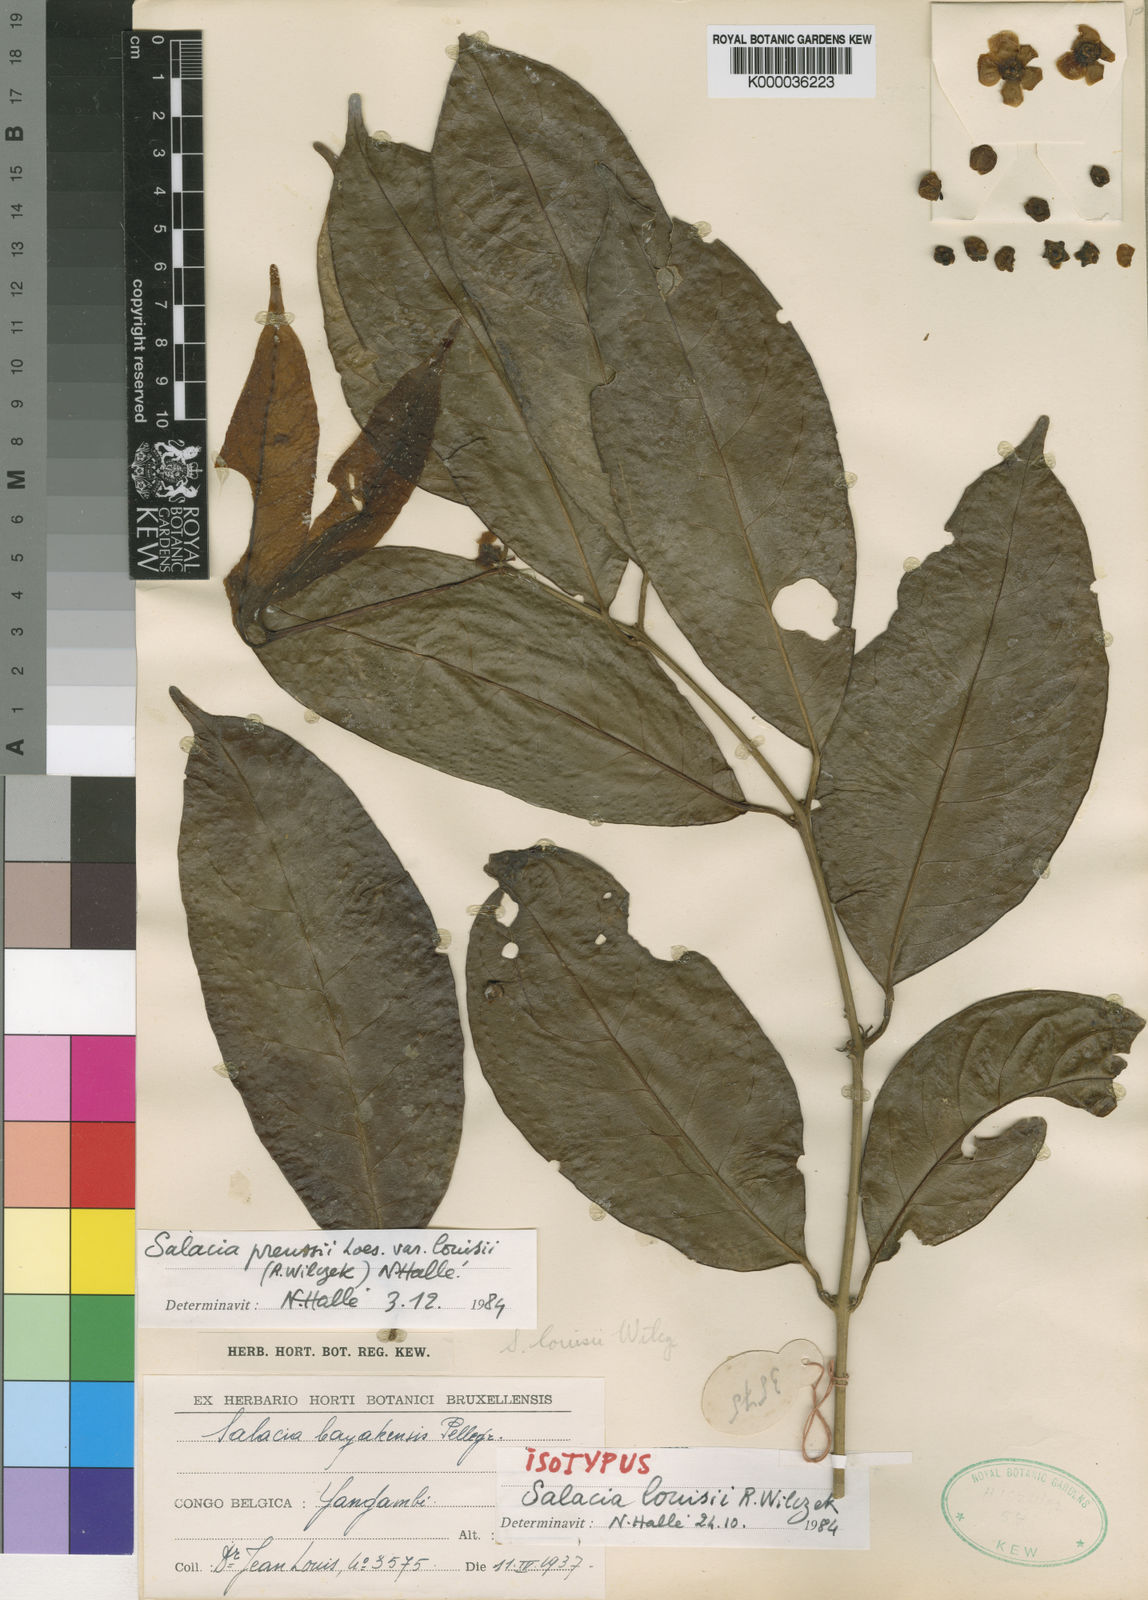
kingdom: Plantae
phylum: Tracheophyta
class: Magnoliopsida
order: Celastrales
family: Celastraceae
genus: Salacia
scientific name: Salacia preussii
